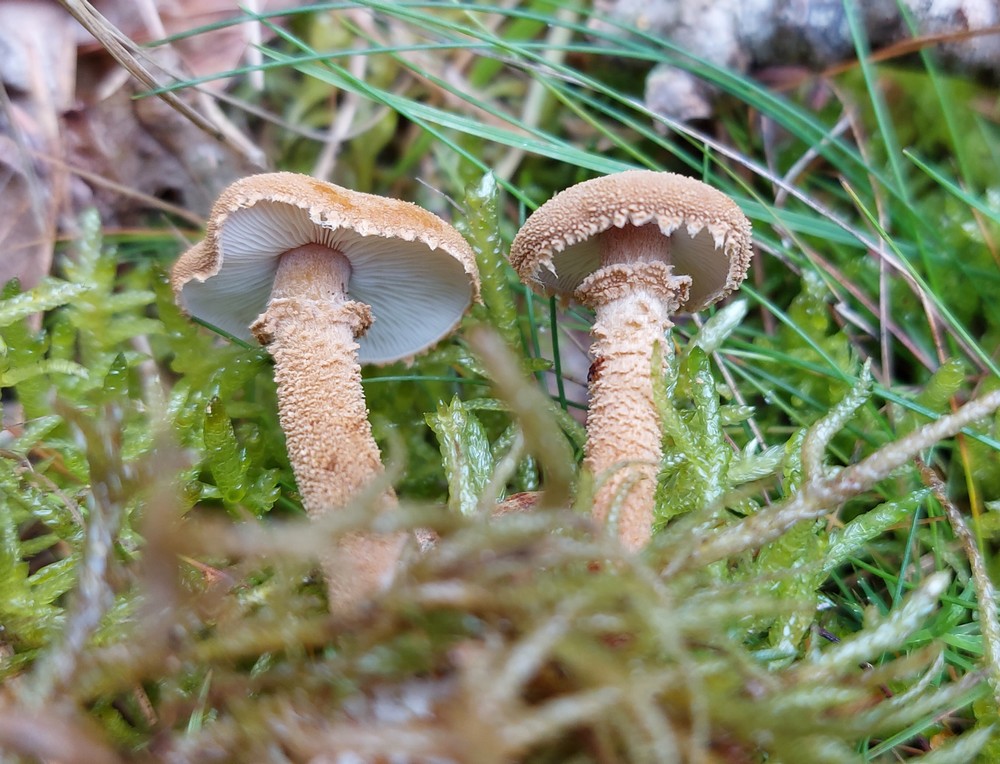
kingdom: Fungi
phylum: Basidiomycota
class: Agaricomycetes
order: Agaricales
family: Tricholomataceae
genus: Cystoderma
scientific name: Cystoderma amianthinum
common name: okkergul grynhat
